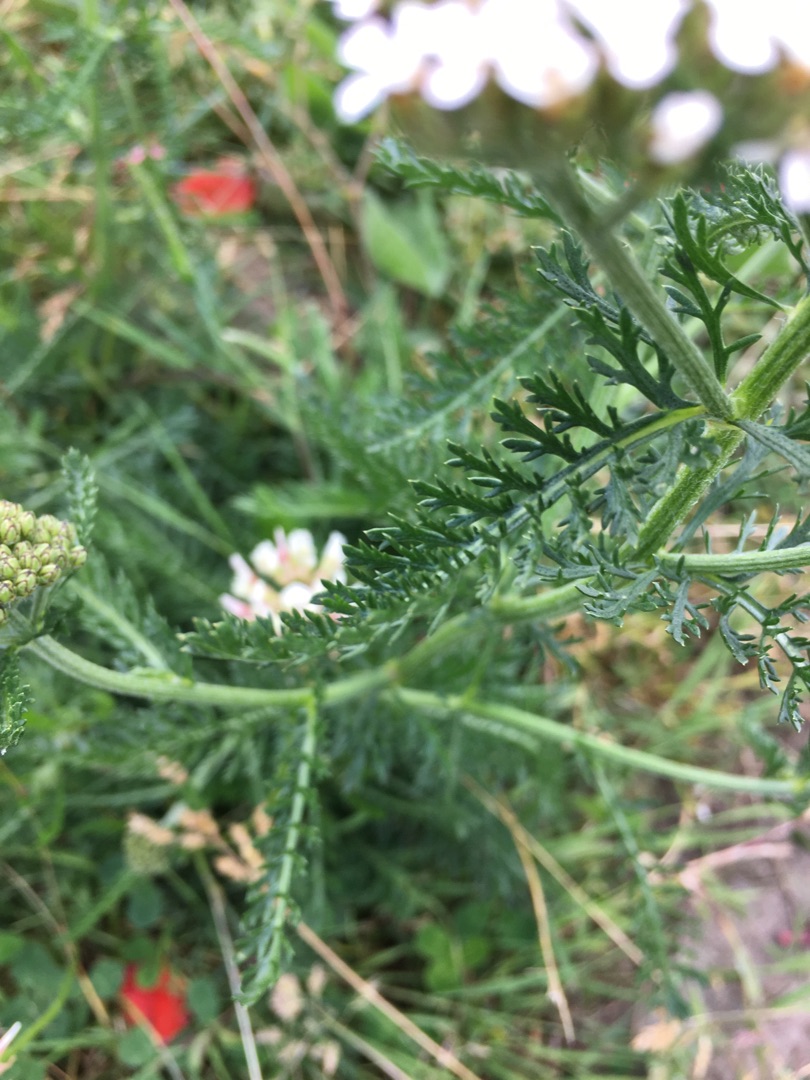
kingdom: Plantae
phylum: Tracheophyta
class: Magnoliopsida
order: Asterales
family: Asteraceae
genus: Achillea
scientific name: Achillea millefolium
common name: Almindelig røllike
